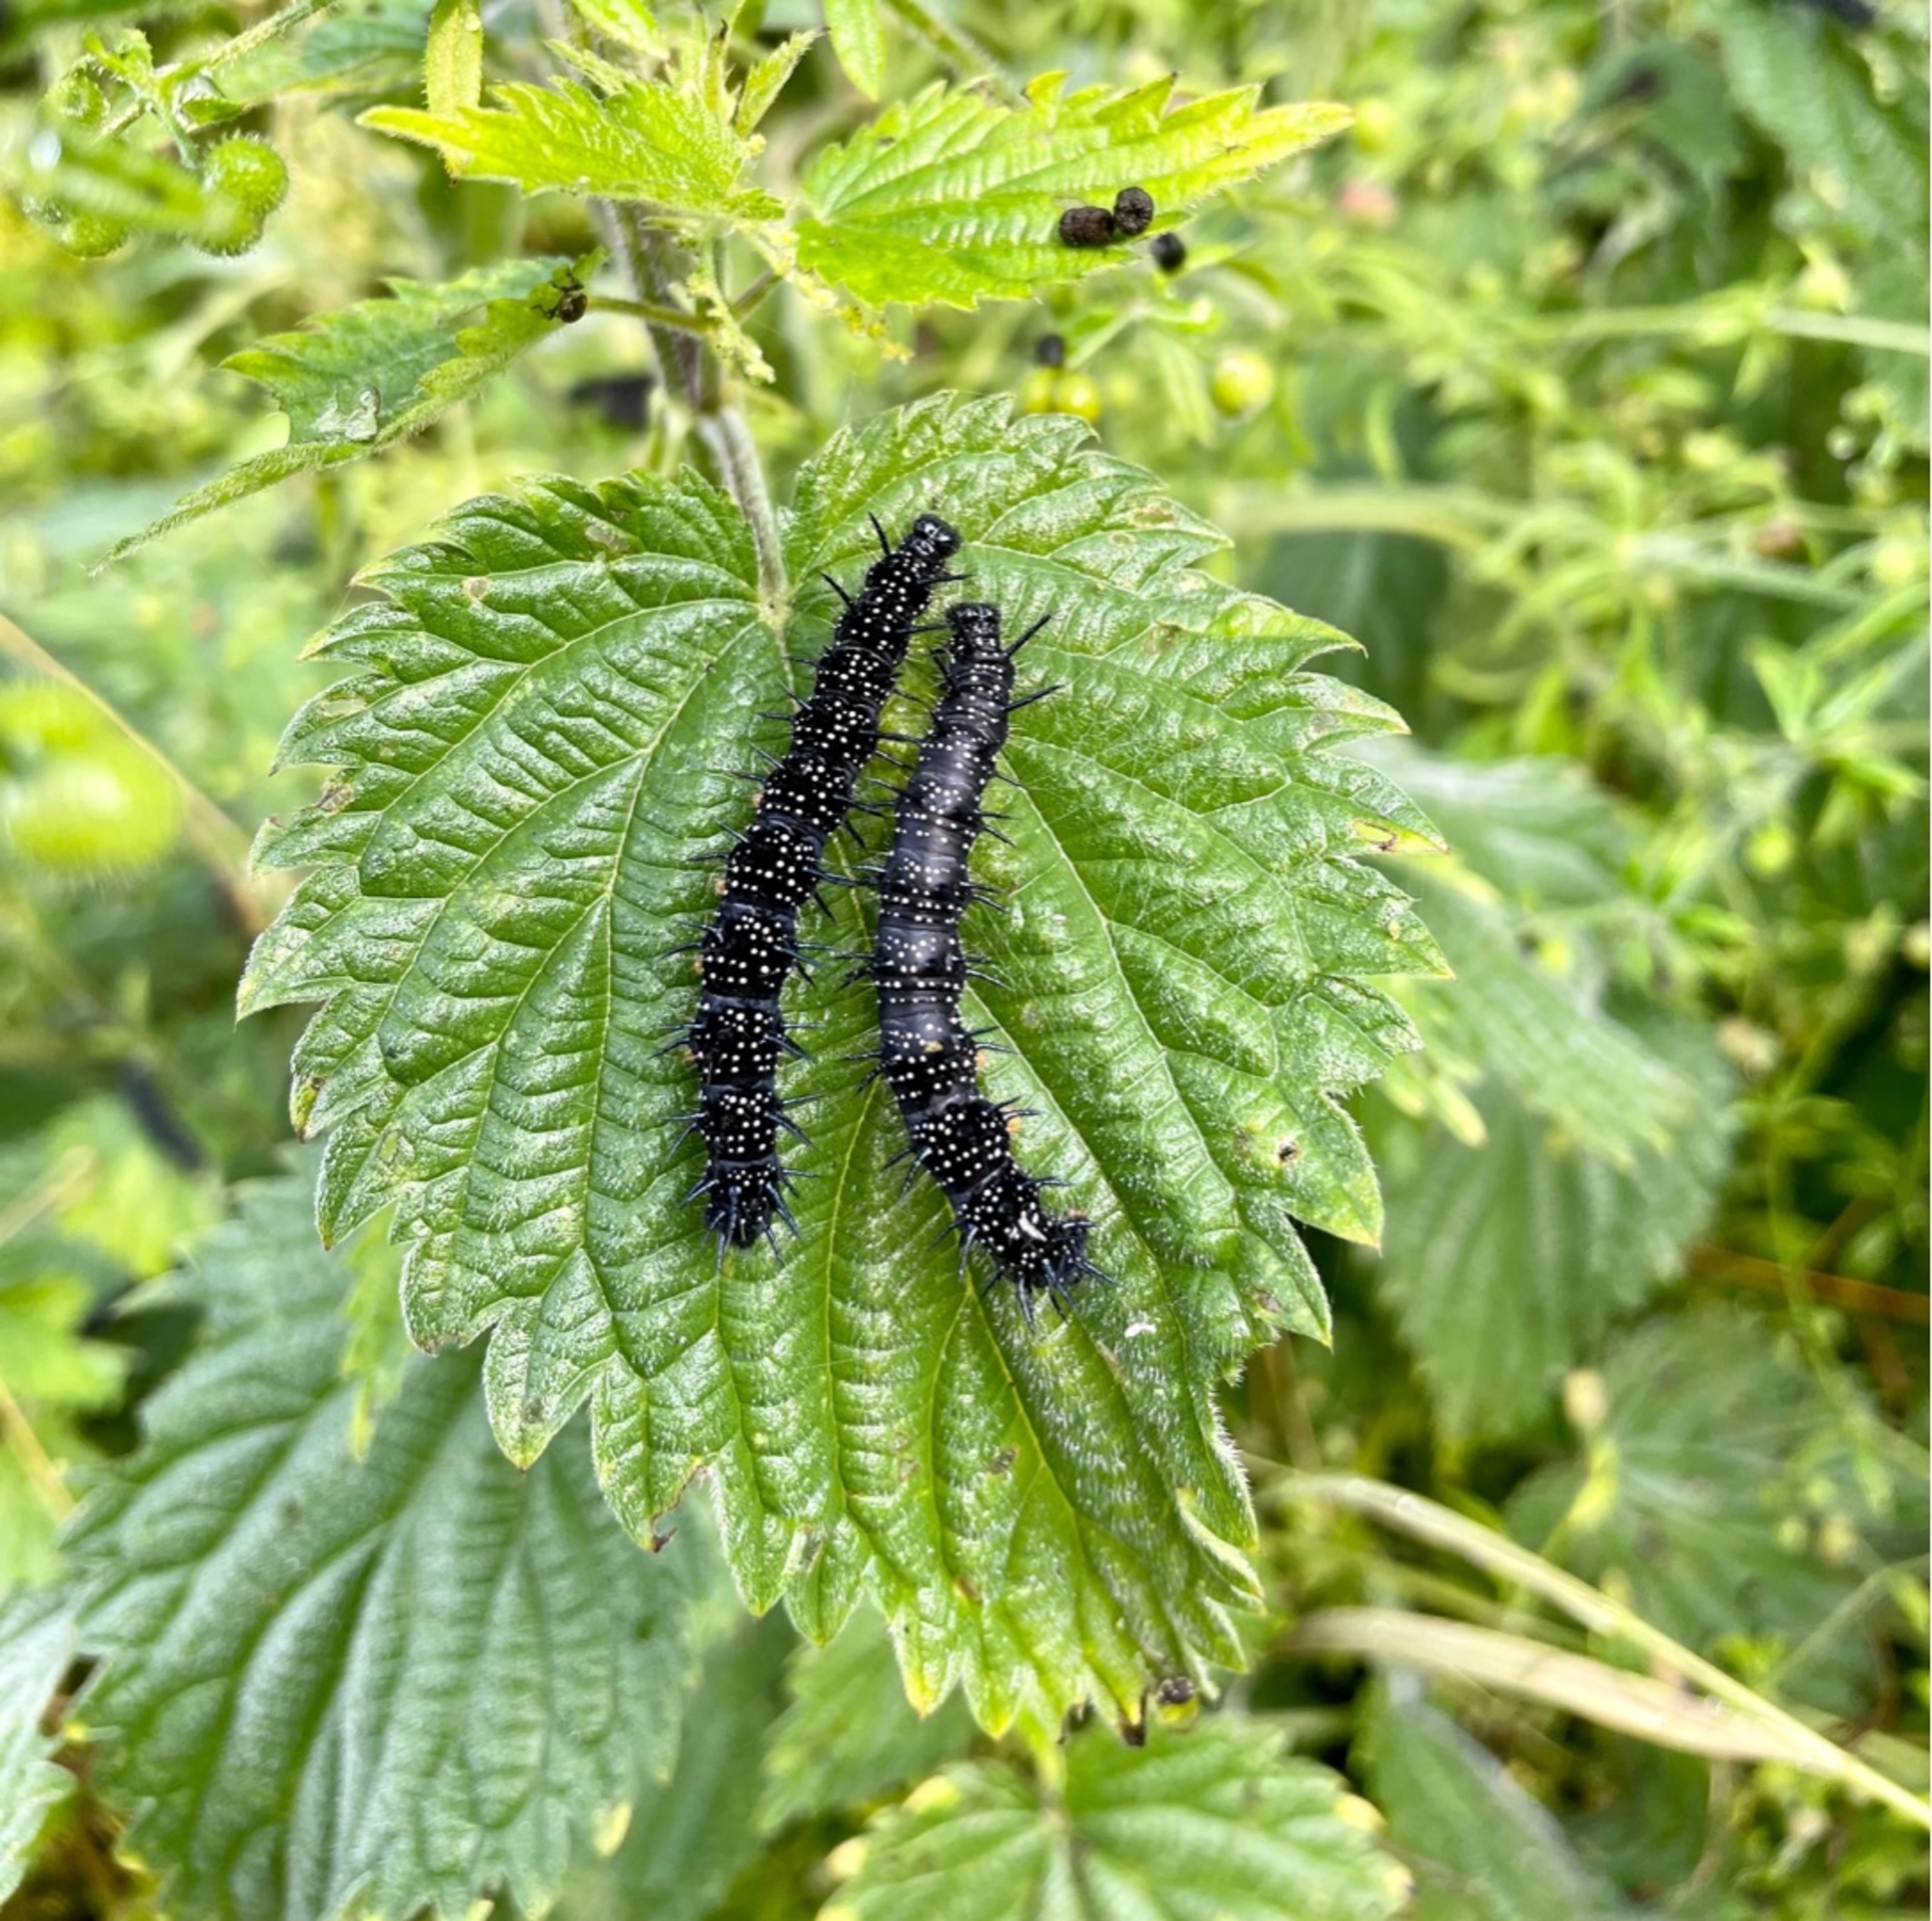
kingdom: Animalia
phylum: Arthropoda
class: Insecta
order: Lepidoptera
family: Nymphalidae
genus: Aglais
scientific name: Aglais io
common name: Dagpåfugleøje
